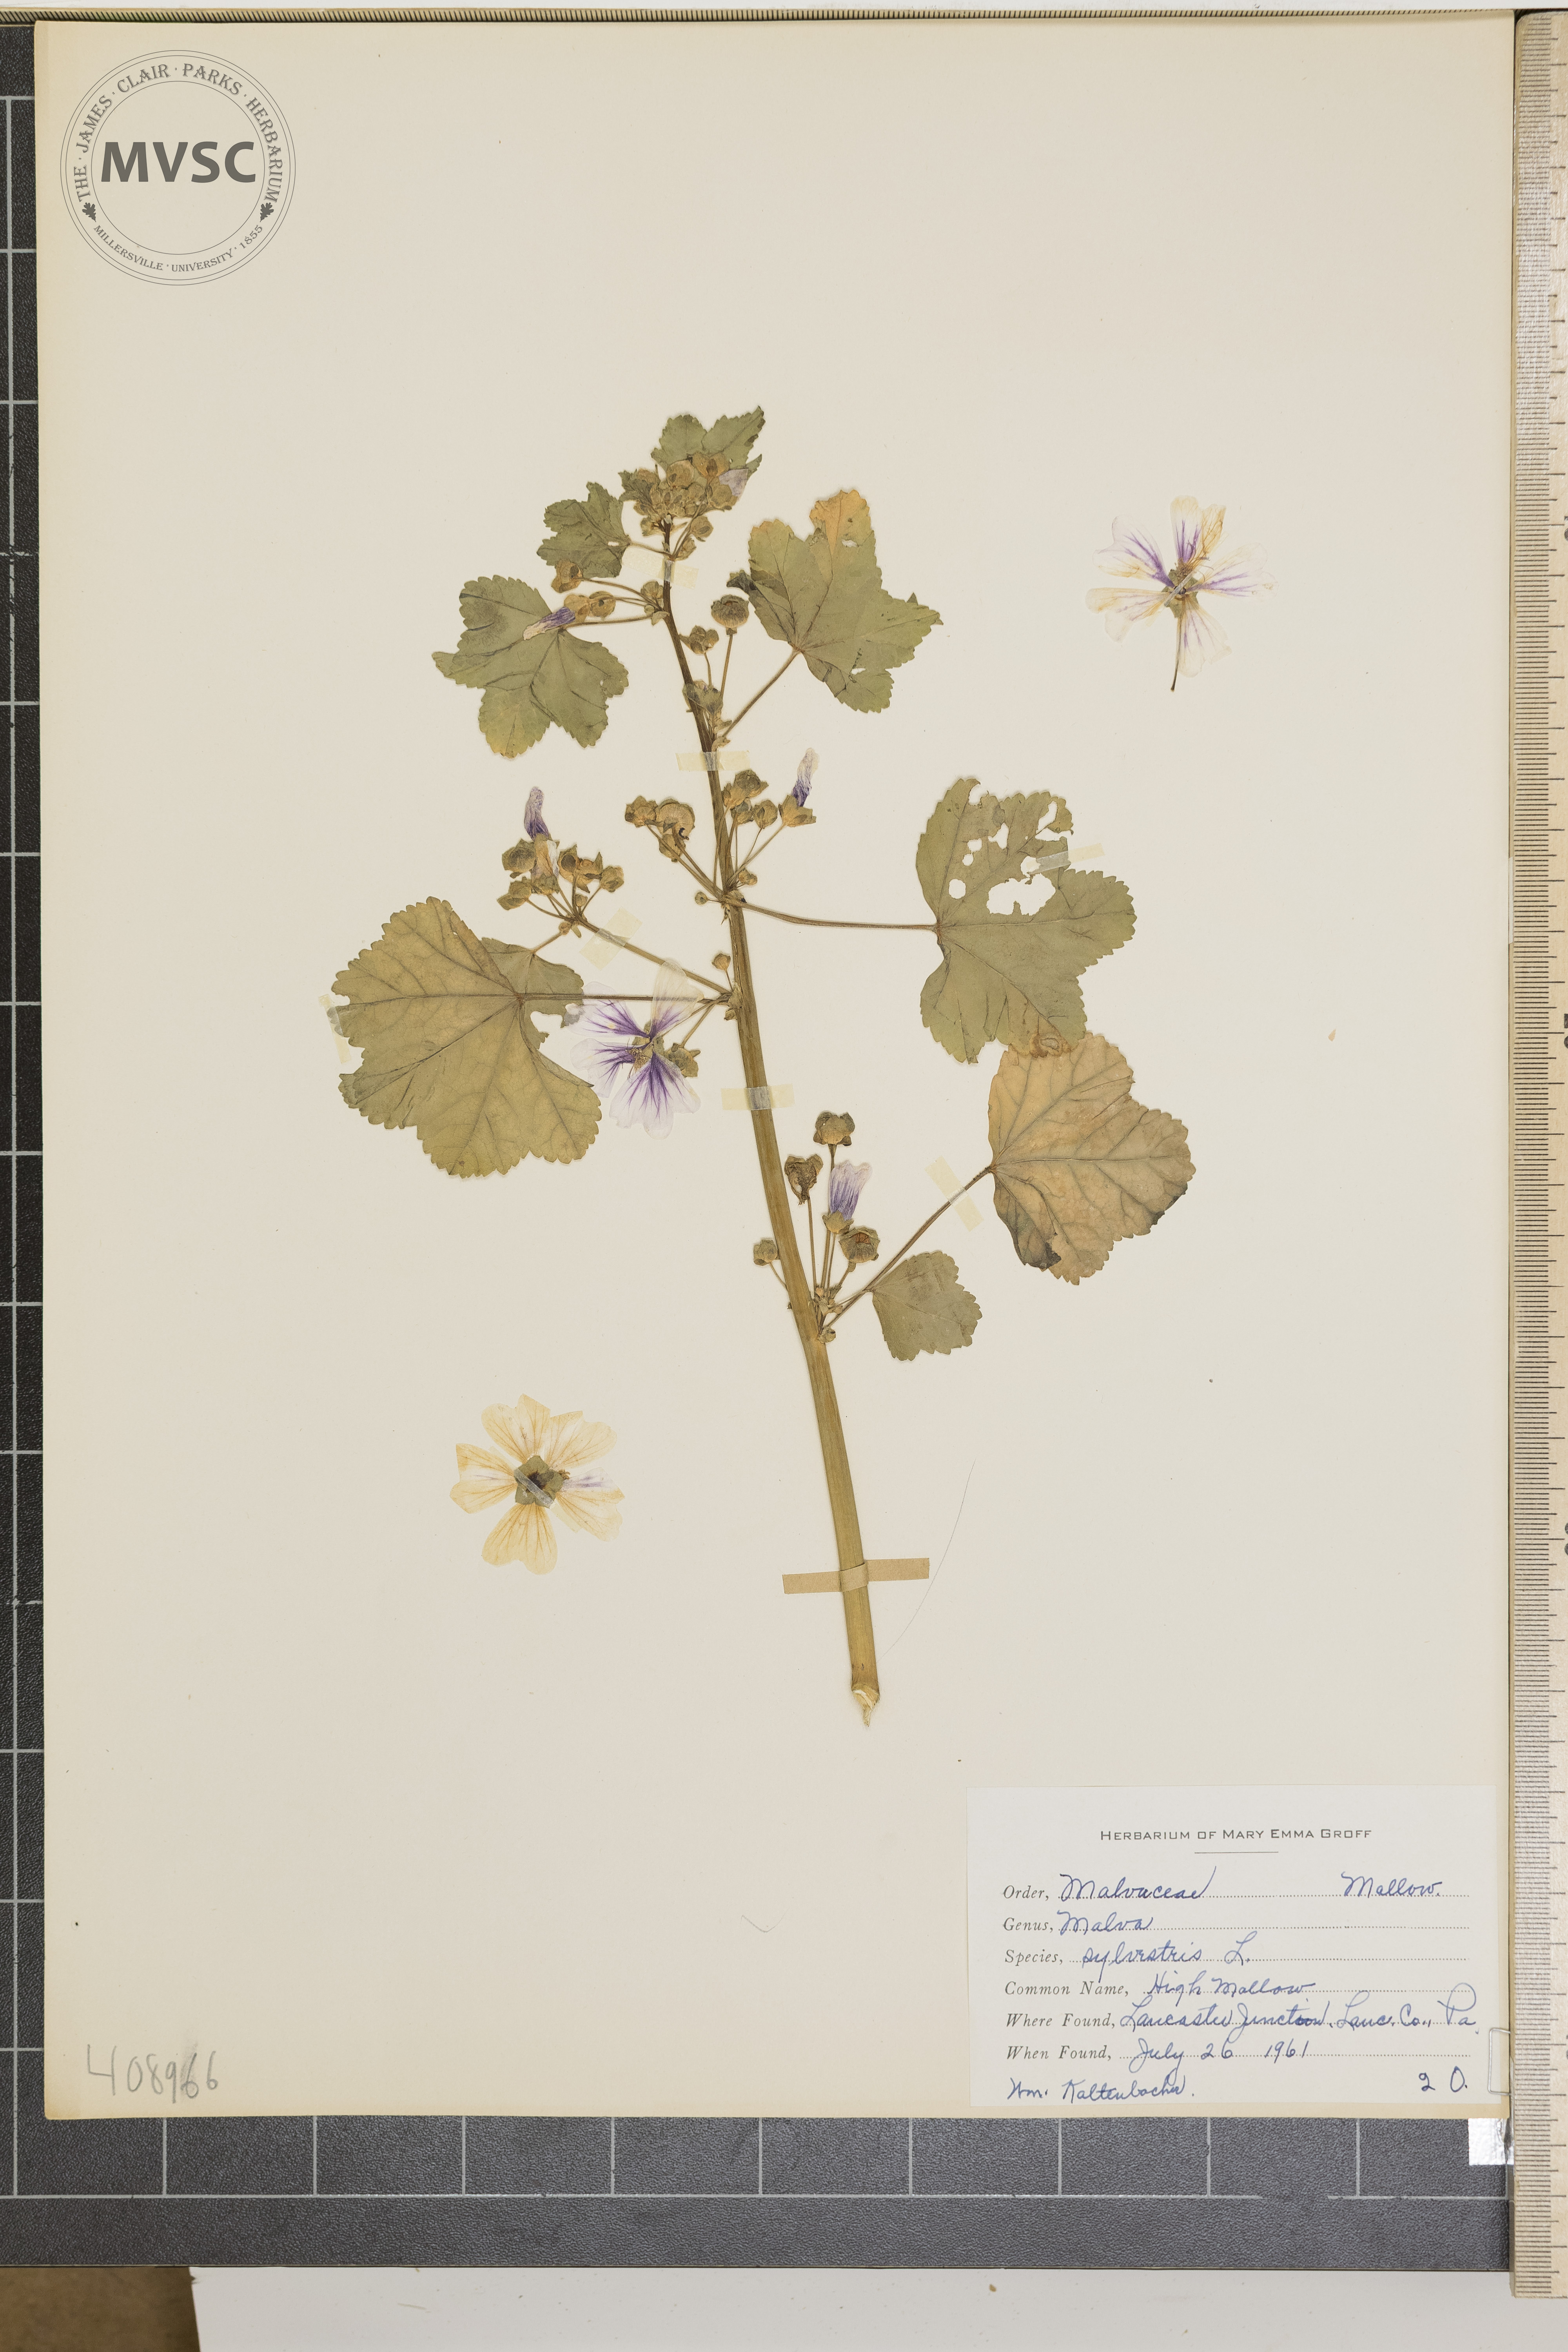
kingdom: Plantae
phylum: Tracheophyta
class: Magnoliopsida
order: Malvales
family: Malvaceae
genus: Malva
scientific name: Malva sylvestris
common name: High Mallow
